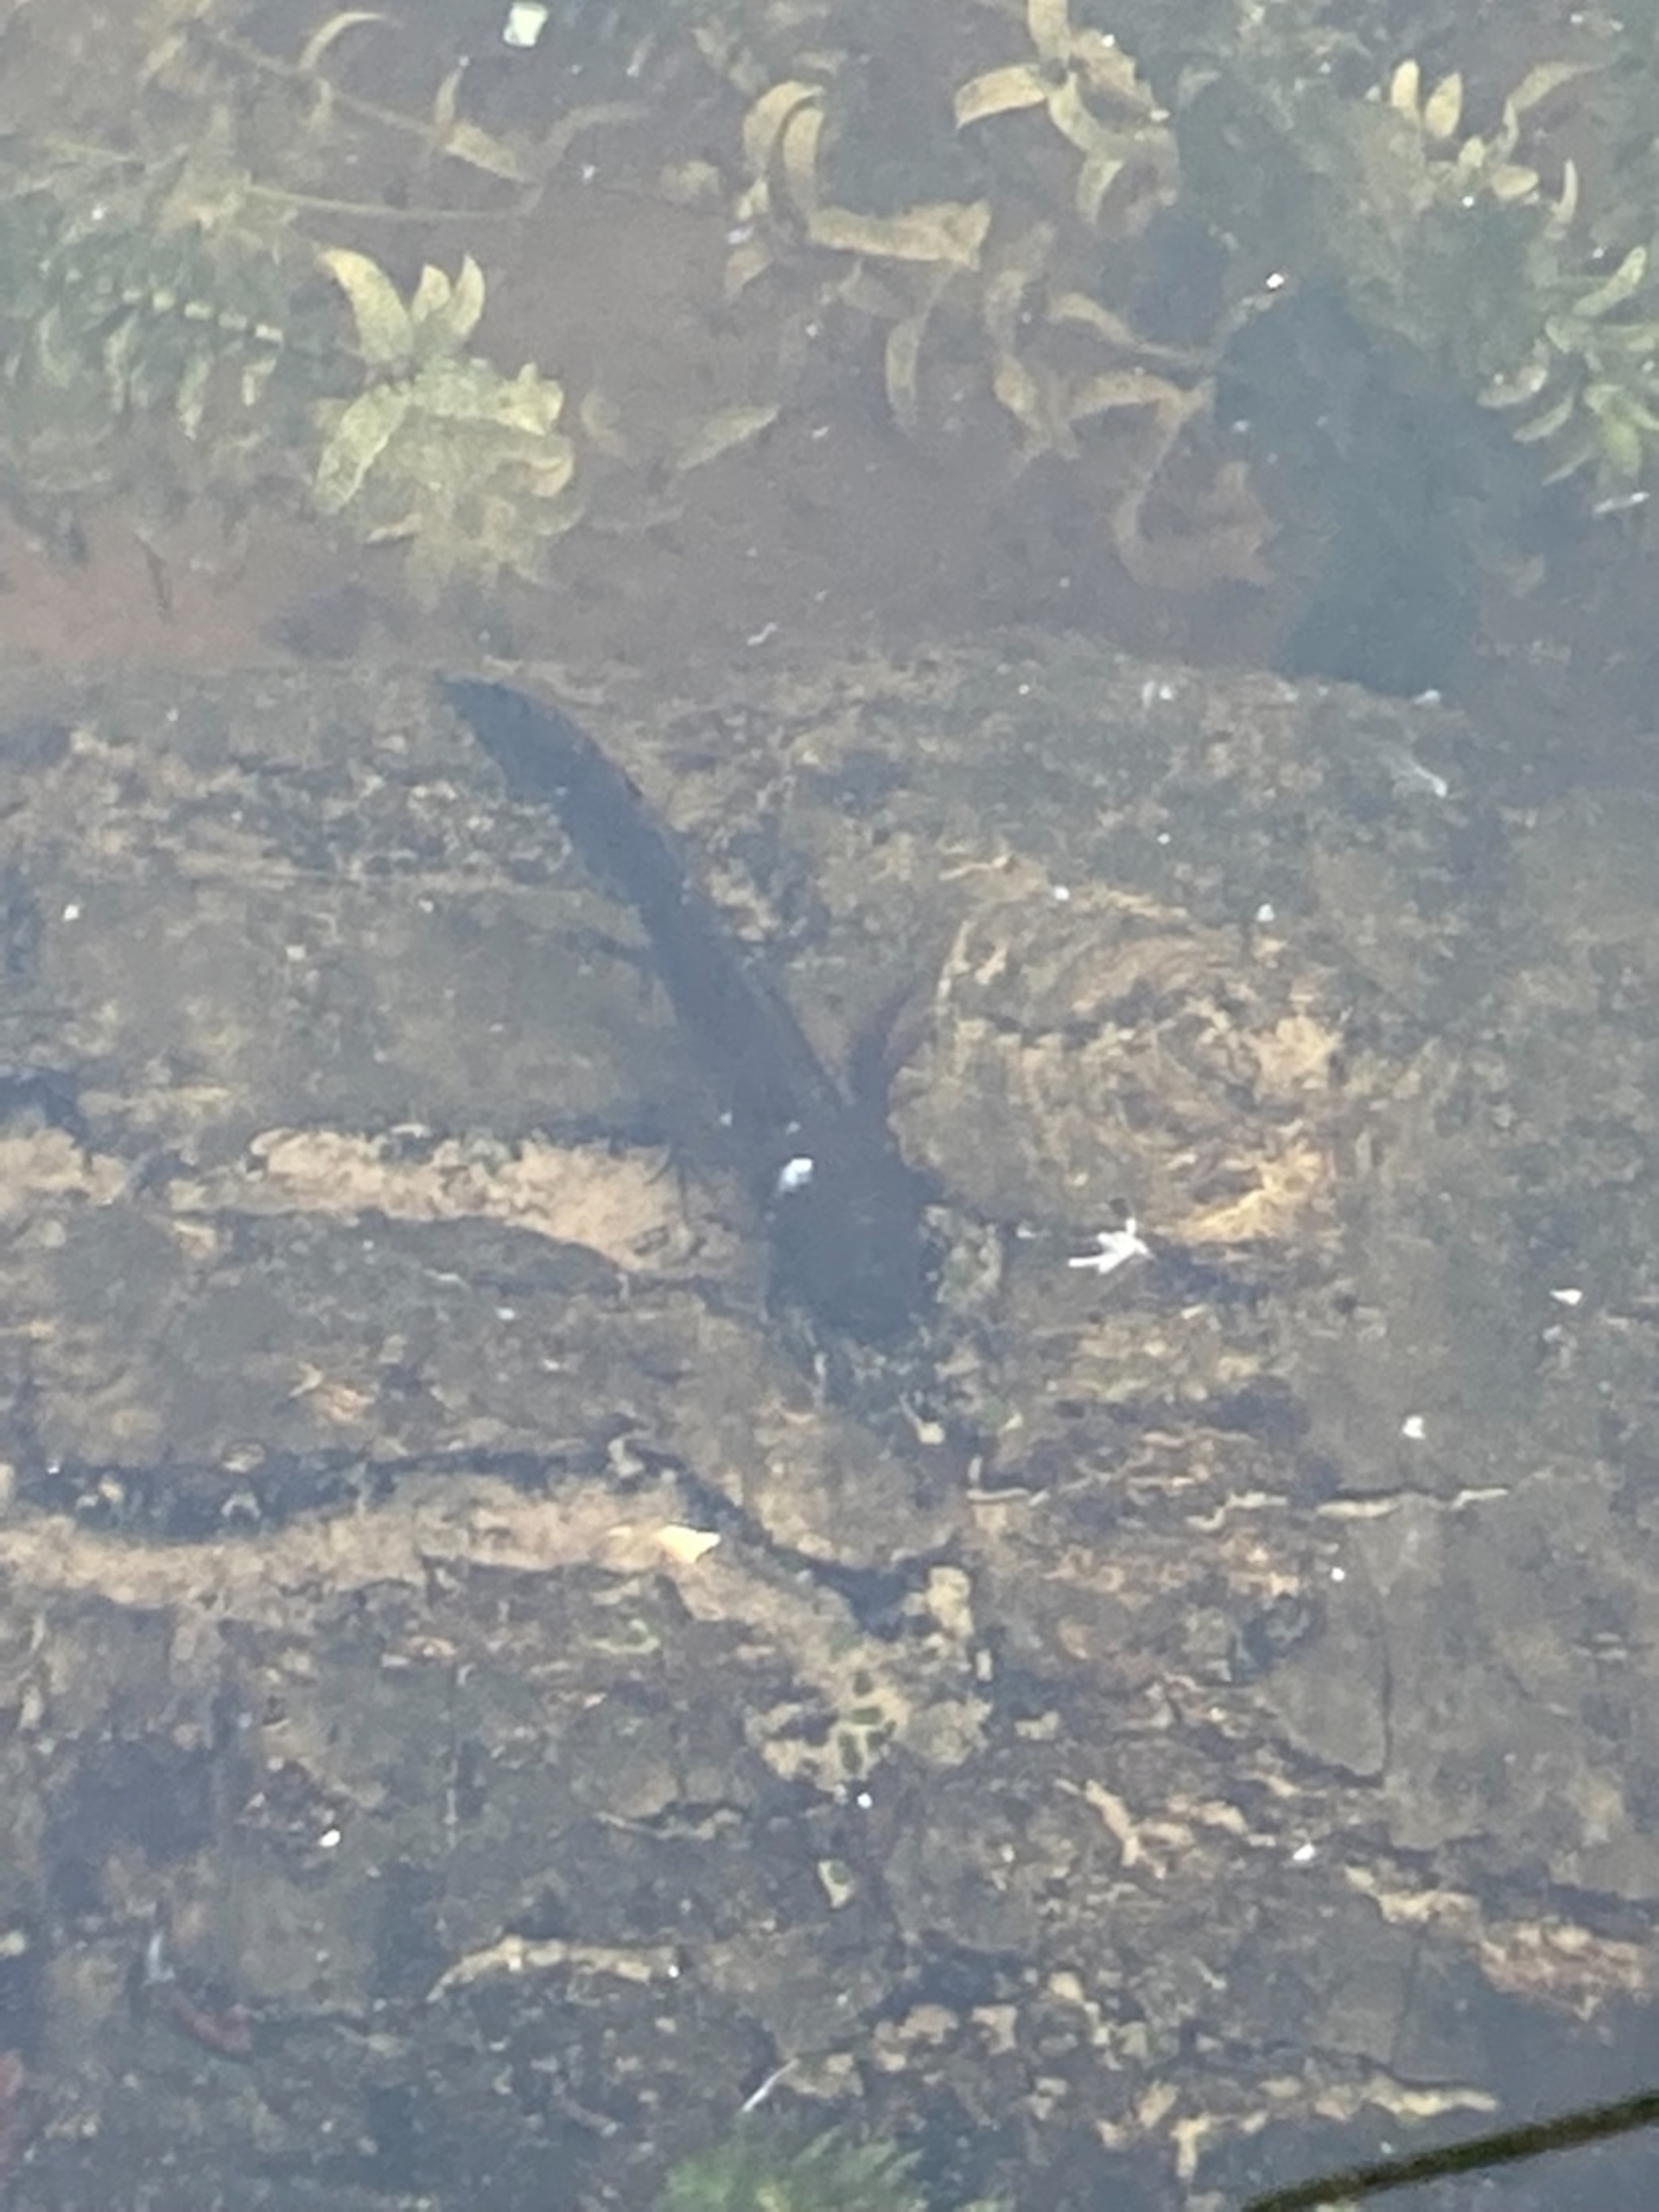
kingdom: Animalia
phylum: Chordata
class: Amphibia
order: Caudata
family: Salamandridae
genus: Triturus
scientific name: Triturus cristatus
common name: Stor vandsalamander
